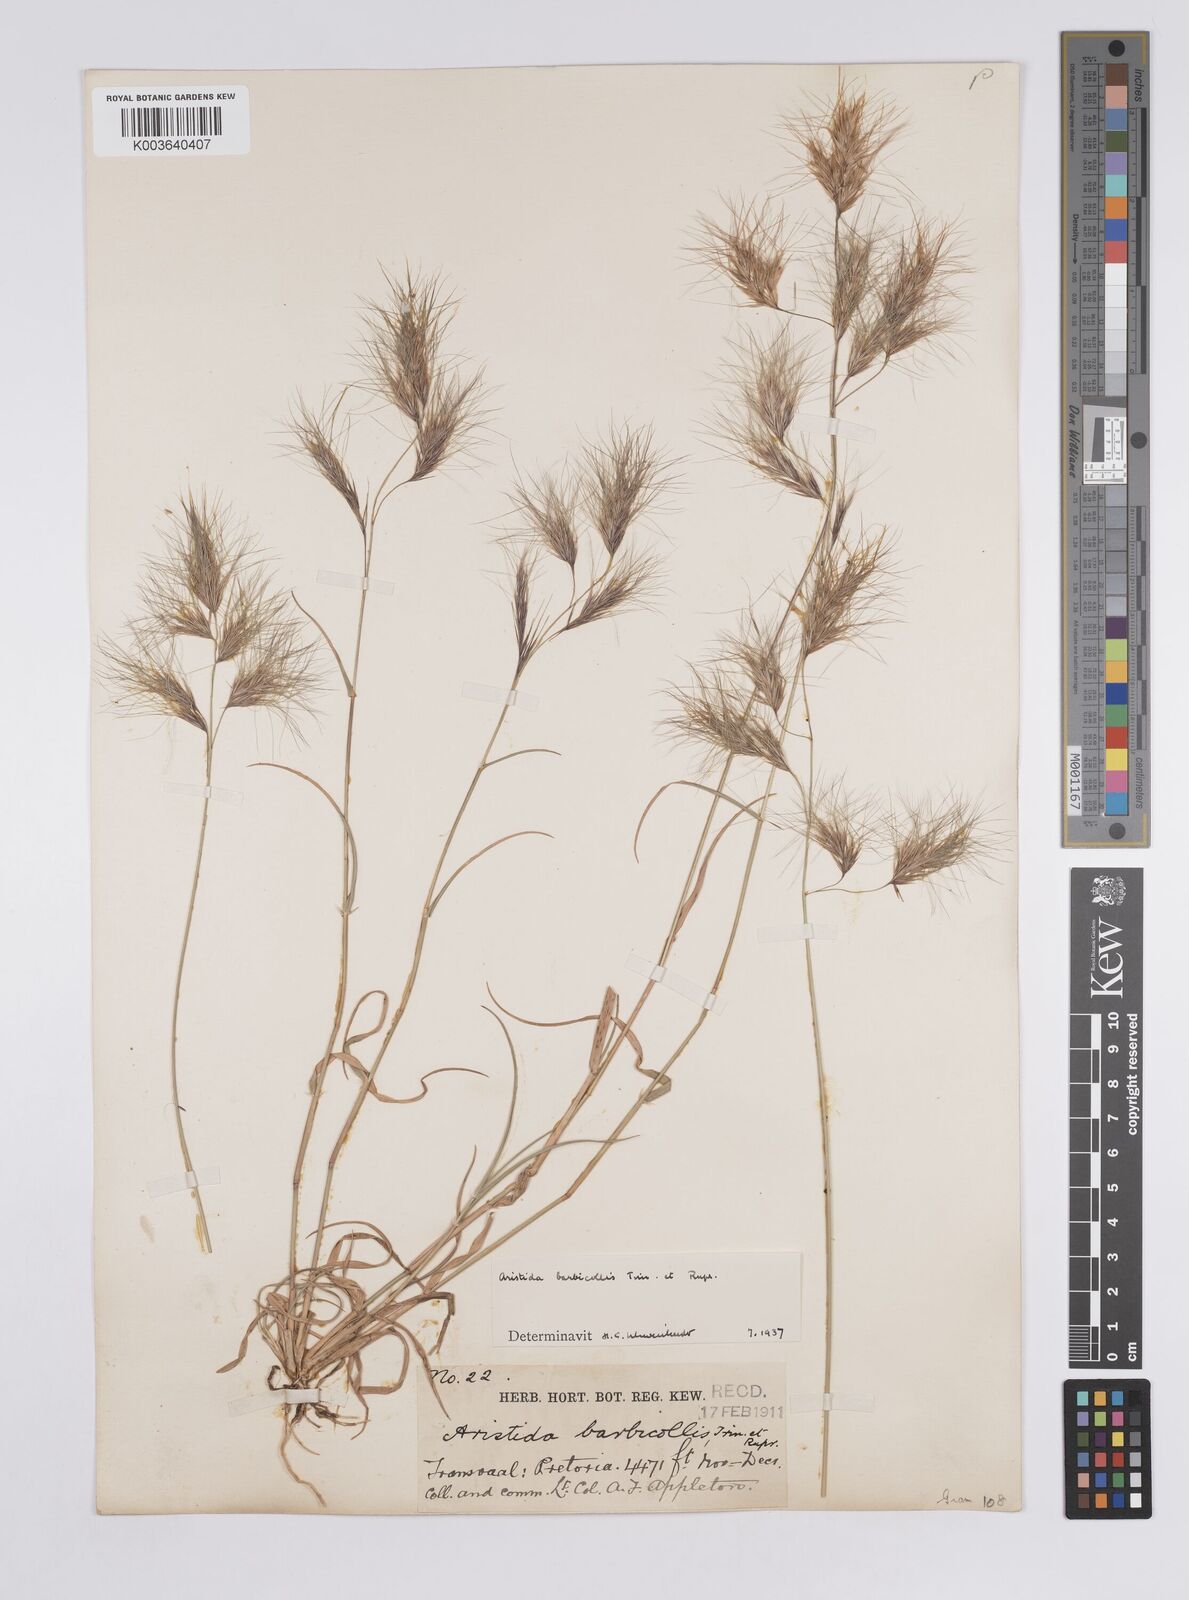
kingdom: Plantae
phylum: Tracheophyta
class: Liliopsida
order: Poales
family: Poaceae
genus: Aristida
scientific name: Aristida barbicollis
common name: Spreading prickle grass
